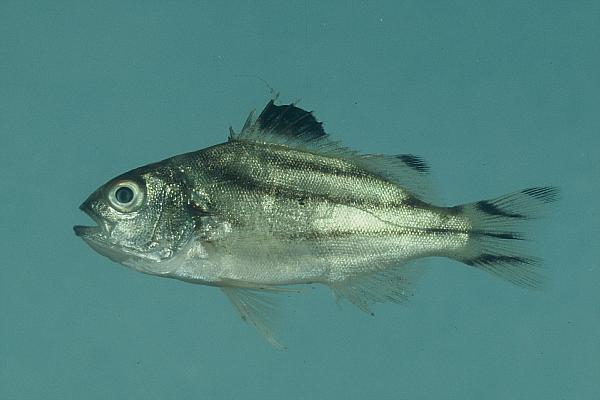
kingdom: Animalia
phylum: Chordata
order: Perciformes
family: Terapontidae
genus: Terapon
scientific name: Terapon jarbua
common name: Jarbua terapon
